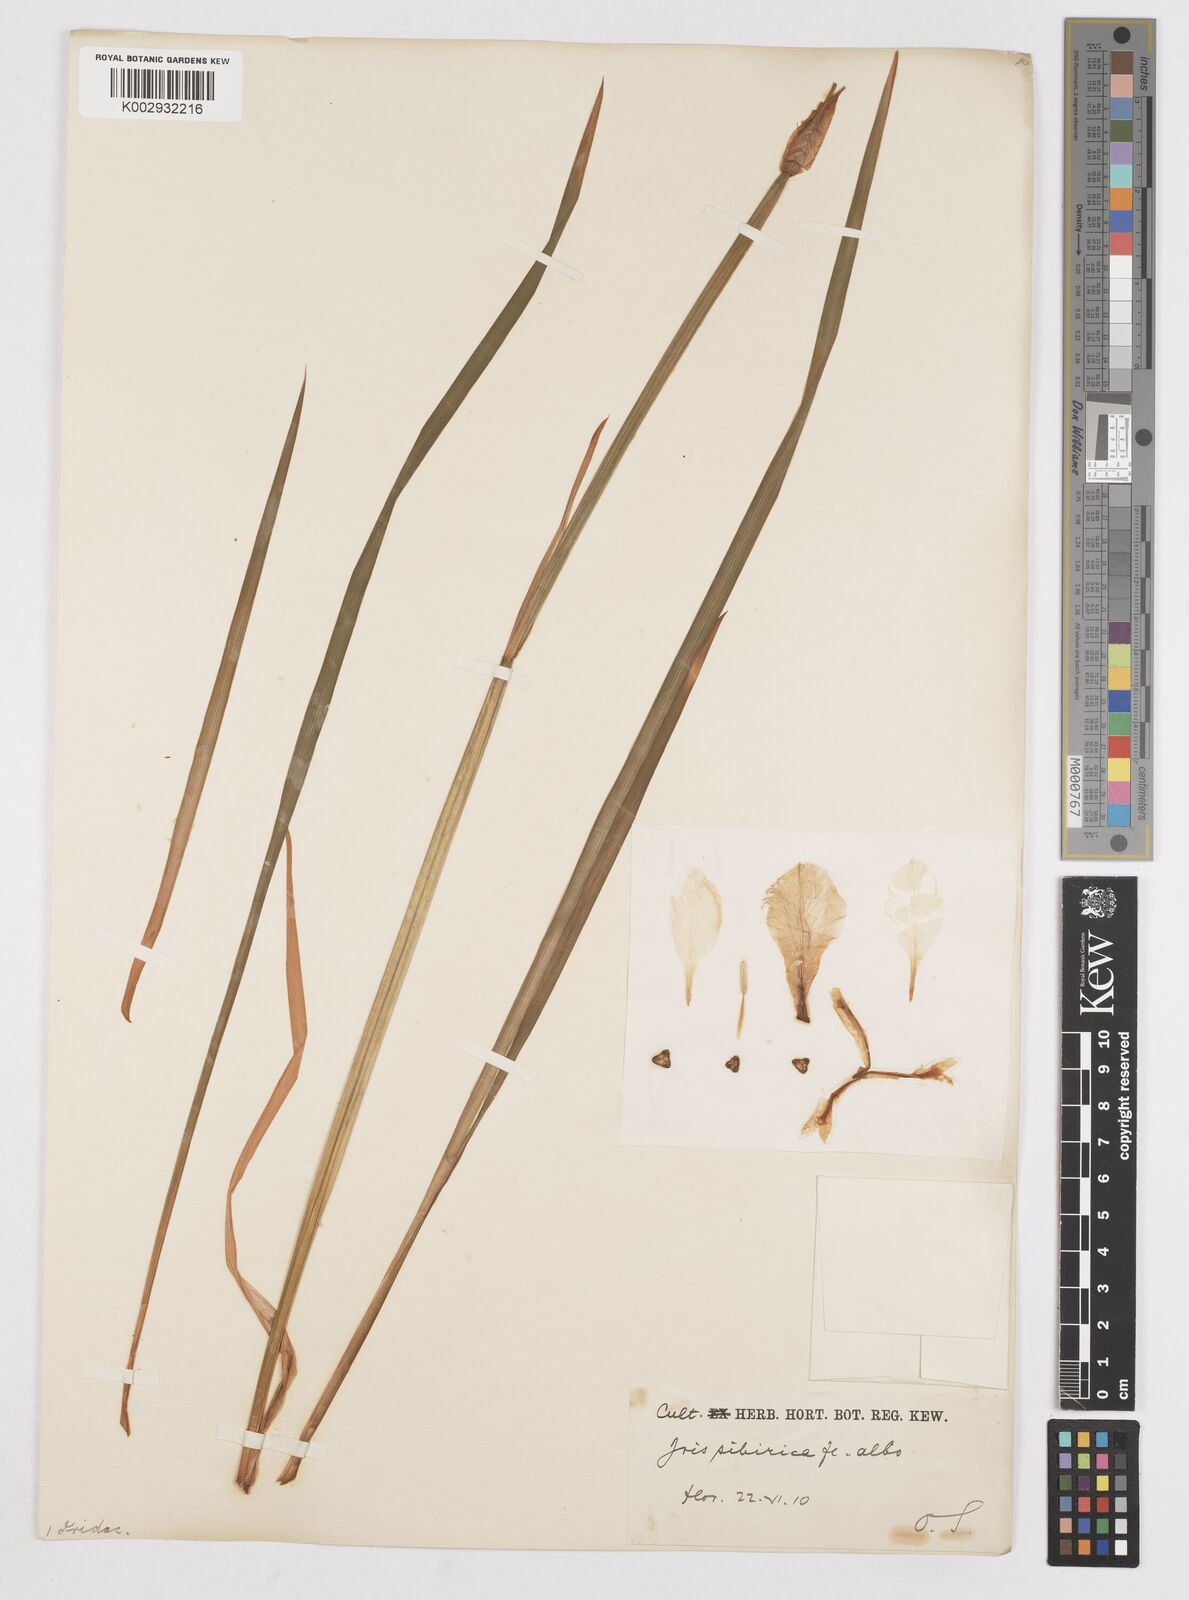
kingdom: Plantae
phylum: Tracheophyta
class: Liliopsida
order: Asparagales
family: Iridaceae
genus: Iris
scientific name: Iris sanguinea
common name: Blood iris
